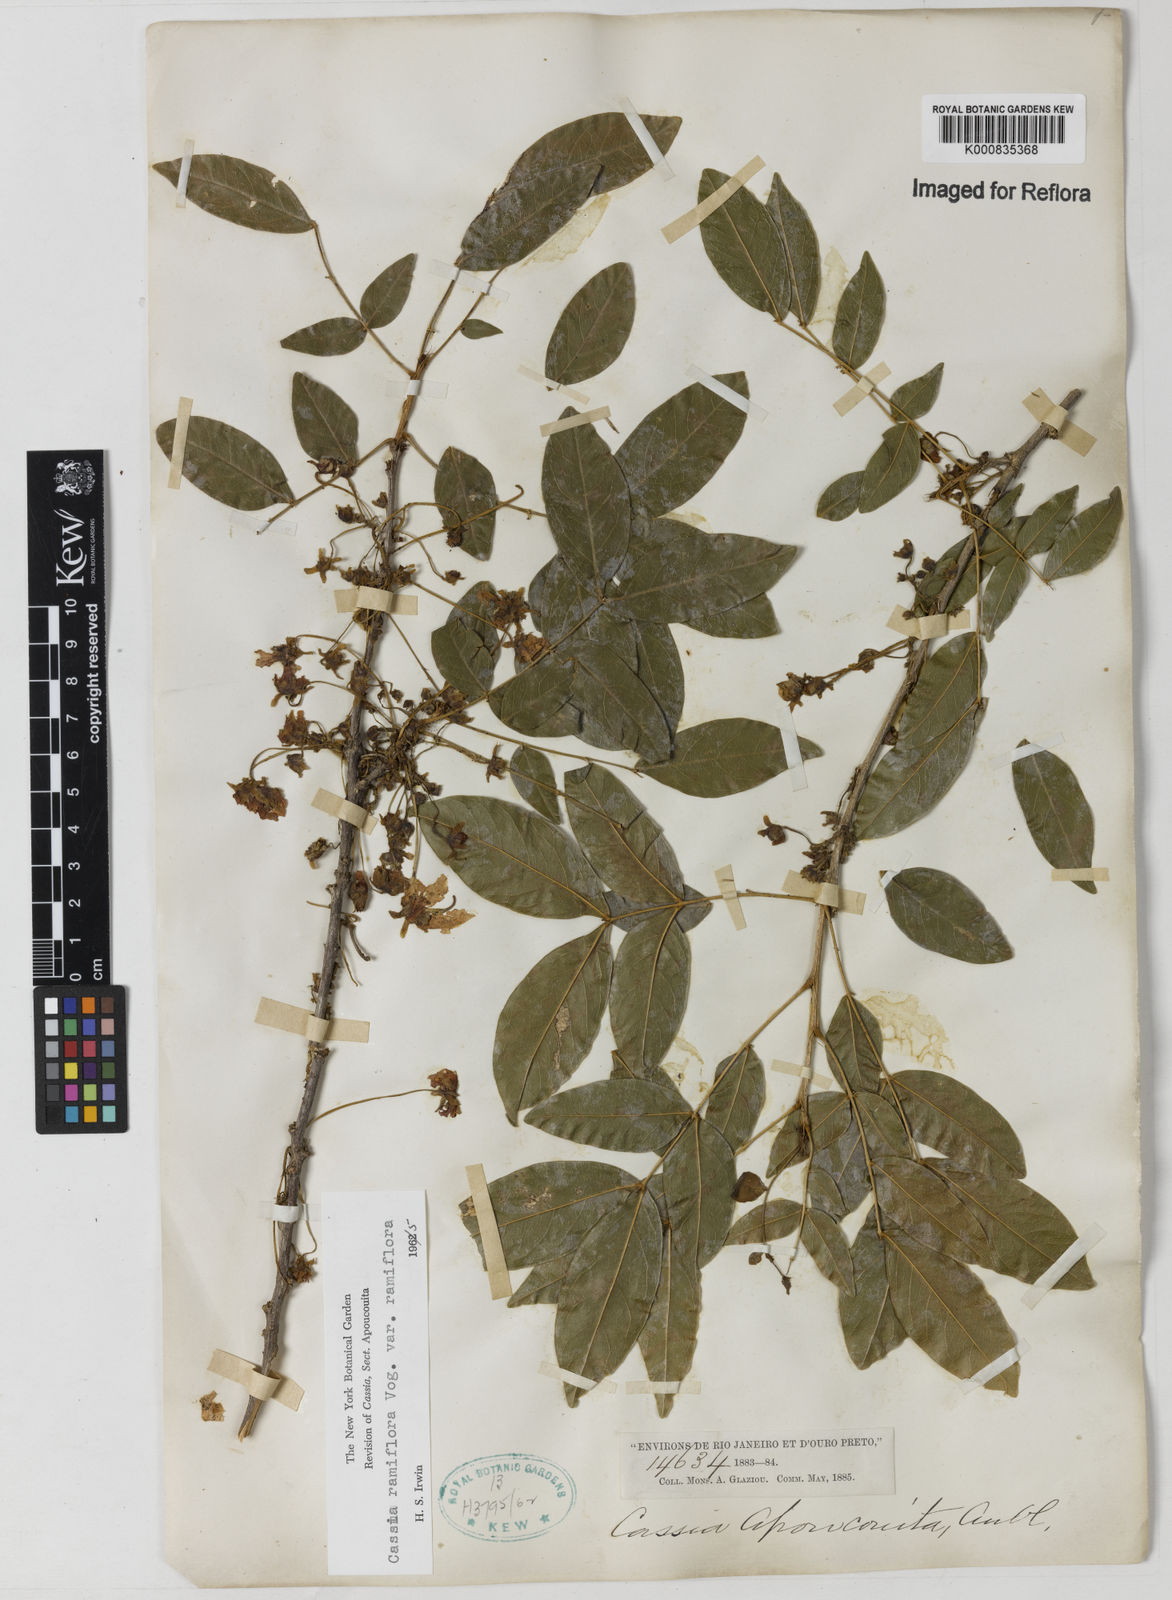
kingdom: Plantae
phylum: Tracheophyta
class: Magnoliopsida
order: Fabales
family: Fabaceae
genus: Chamaecrista
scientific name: Chamaecrista ensiformis
